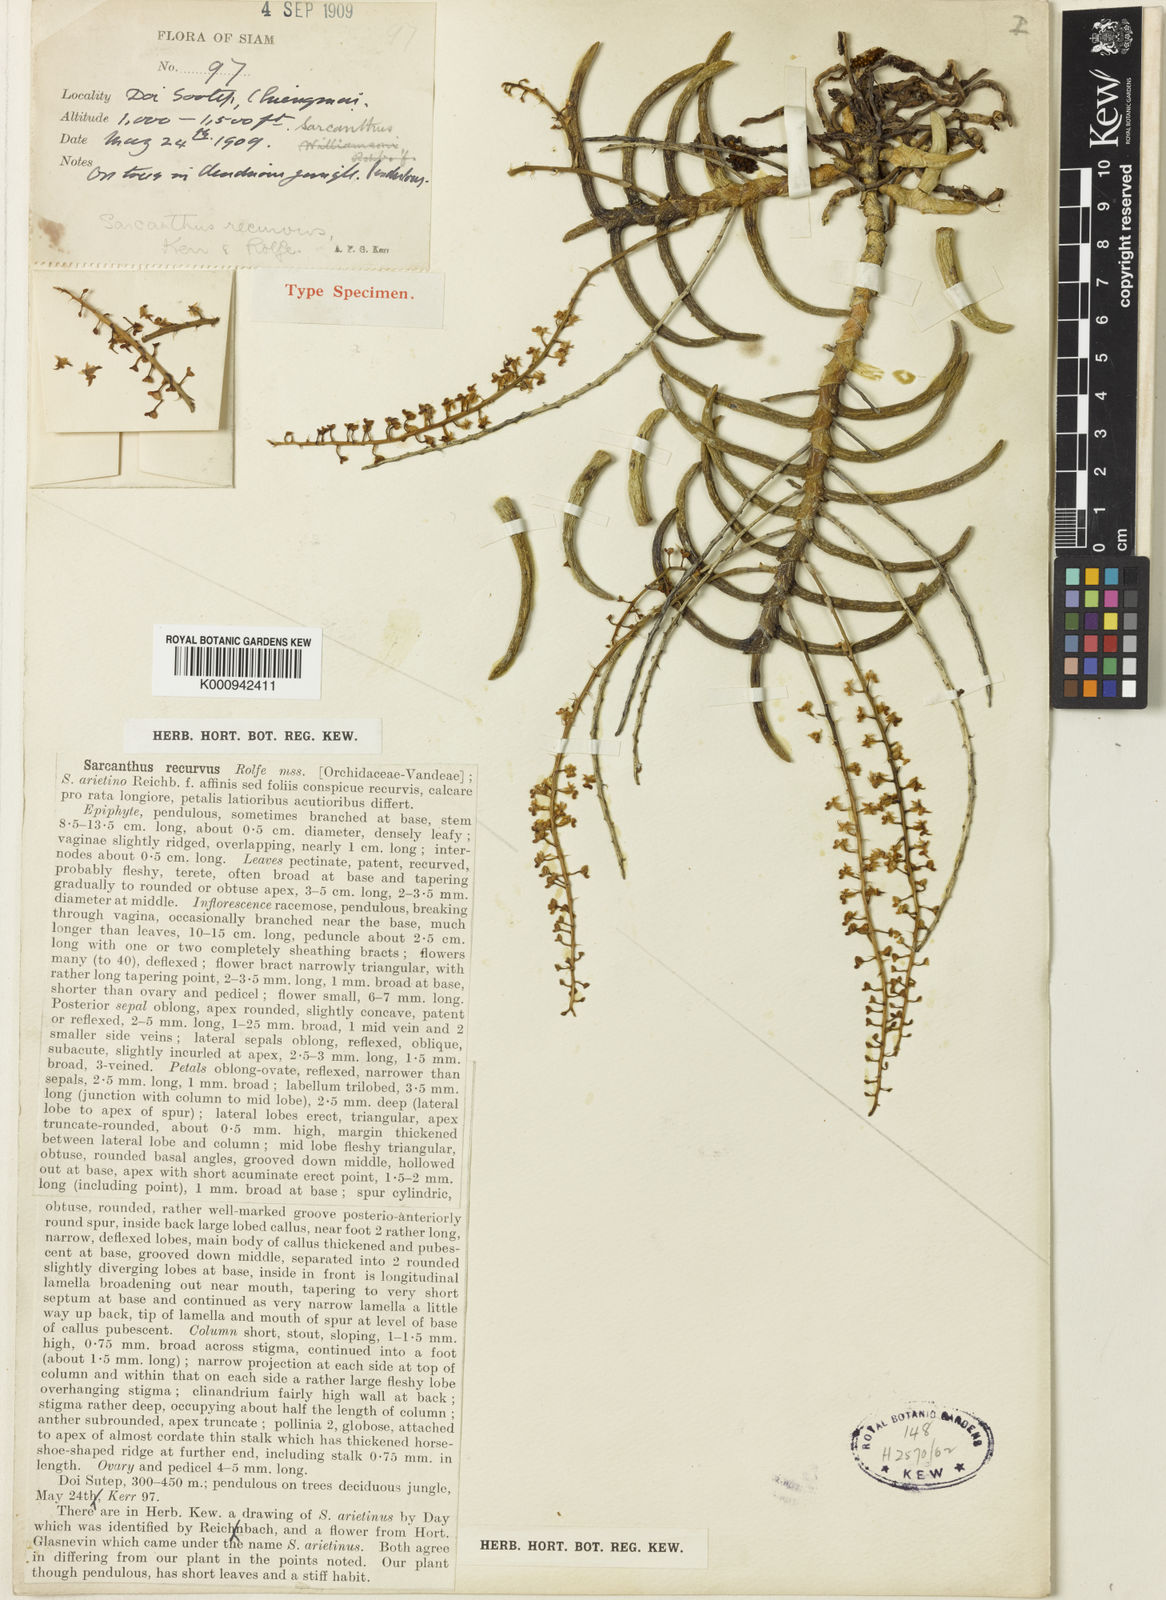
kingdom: Plantae
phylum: Tracheophyta
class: Liliopsida
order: Asparagales
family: Orchidaceae
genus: Cleisostoma
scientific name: Cleisostoma arietinum
